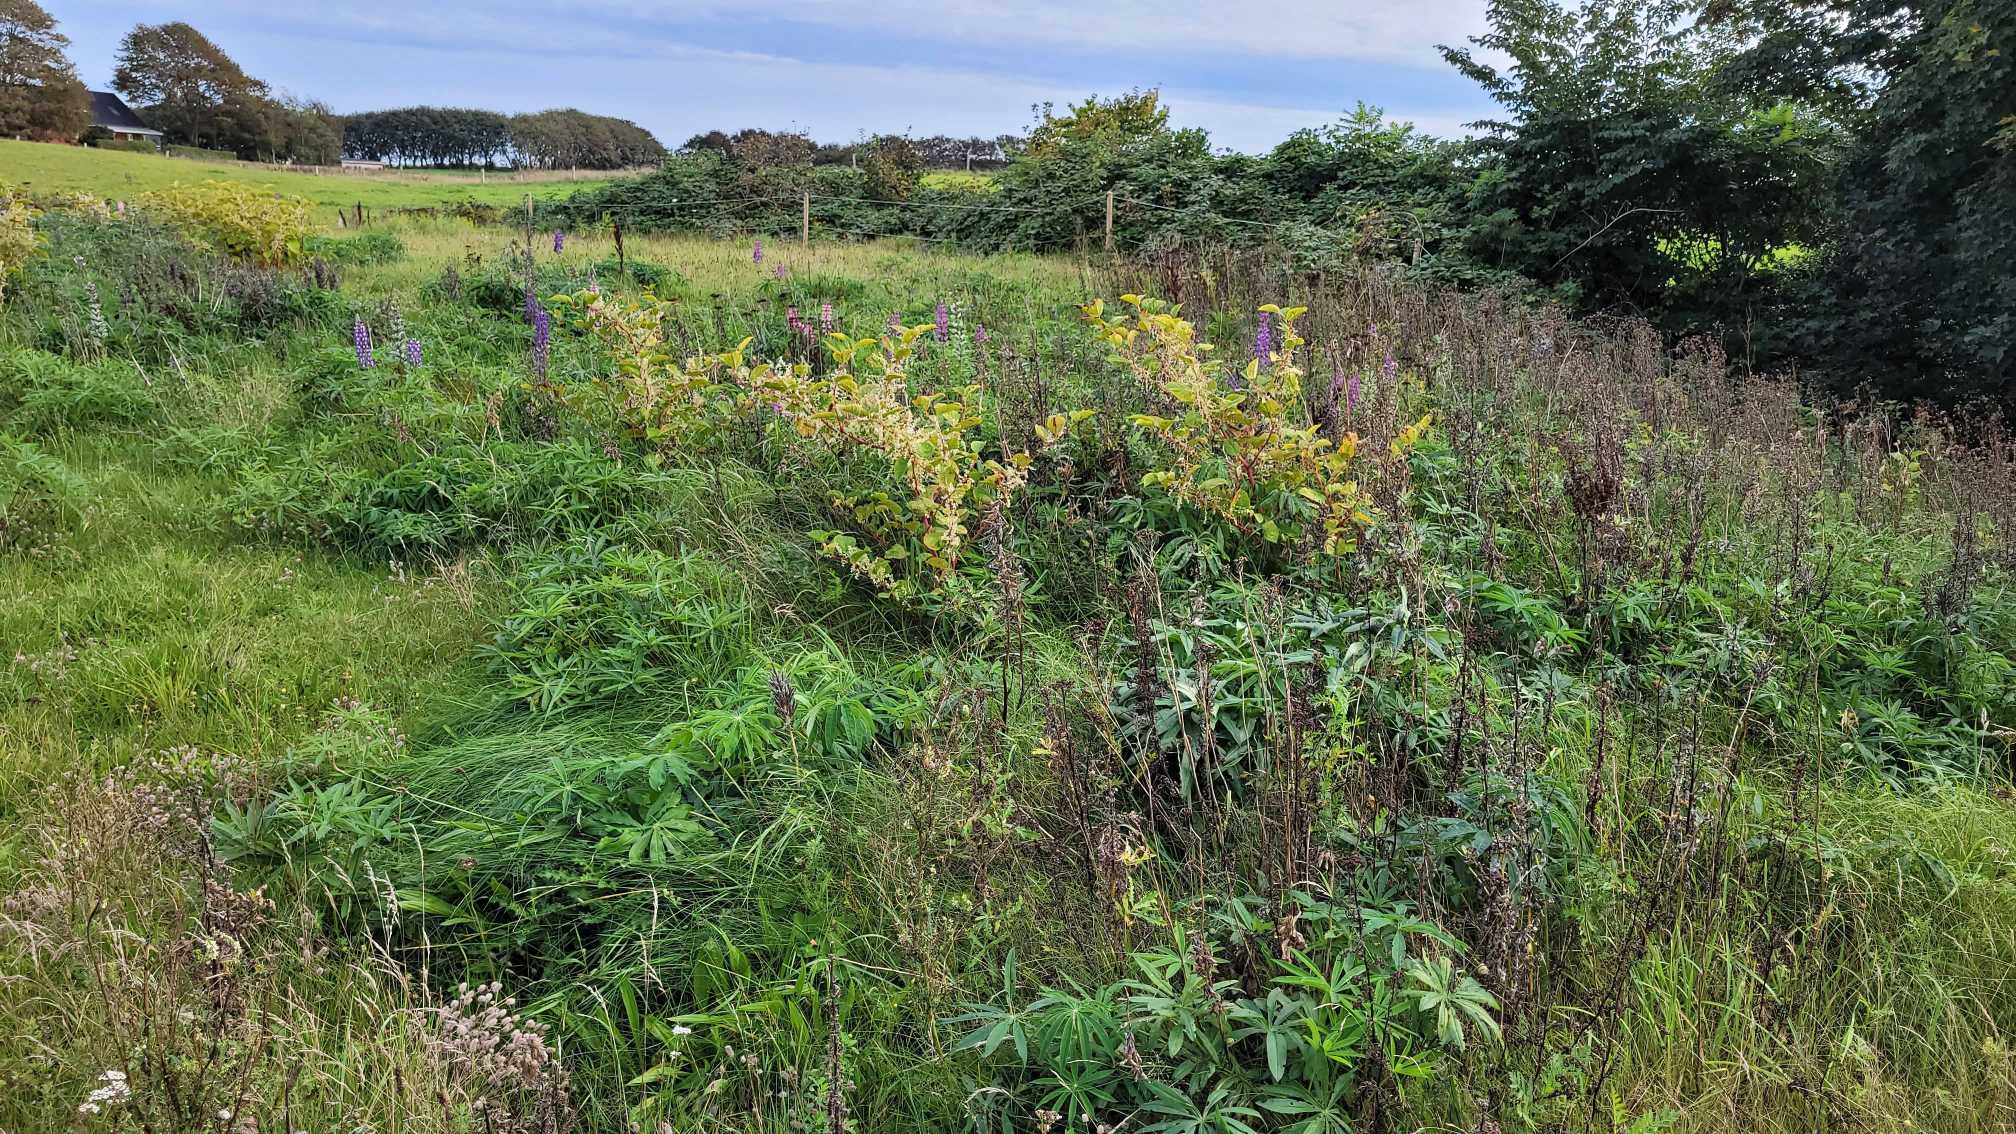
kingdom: Plantae
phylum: Tracheophyta
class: Magnoliopsida
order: Fabales
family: Fabaceae
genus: Lupinus
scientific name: Lupinus polyphyllus
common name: Mangebladet lupin
